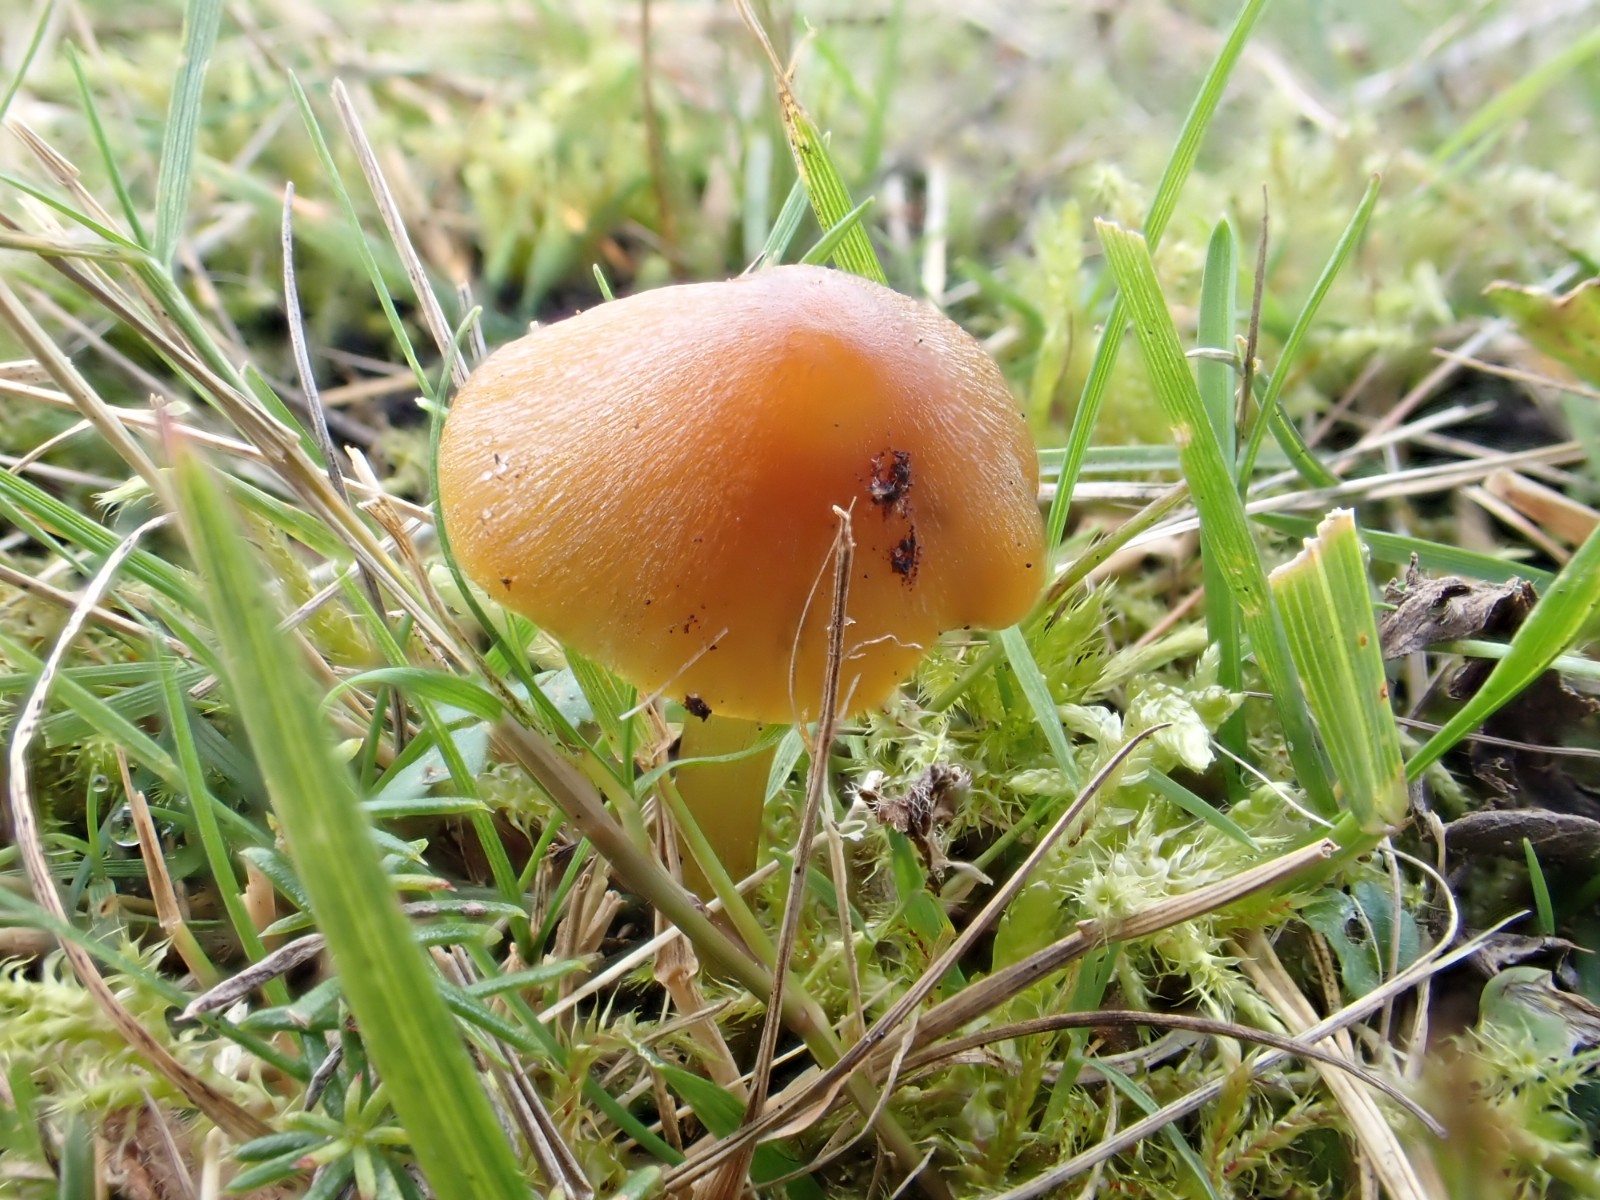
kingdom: Fungi
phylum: Basidiomycota
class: Agaricomycetes
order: Agaricales
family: Hygrophoraceae
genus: Hygrocybe
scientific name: Hygrocybe conica
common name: kegle-vokshat
